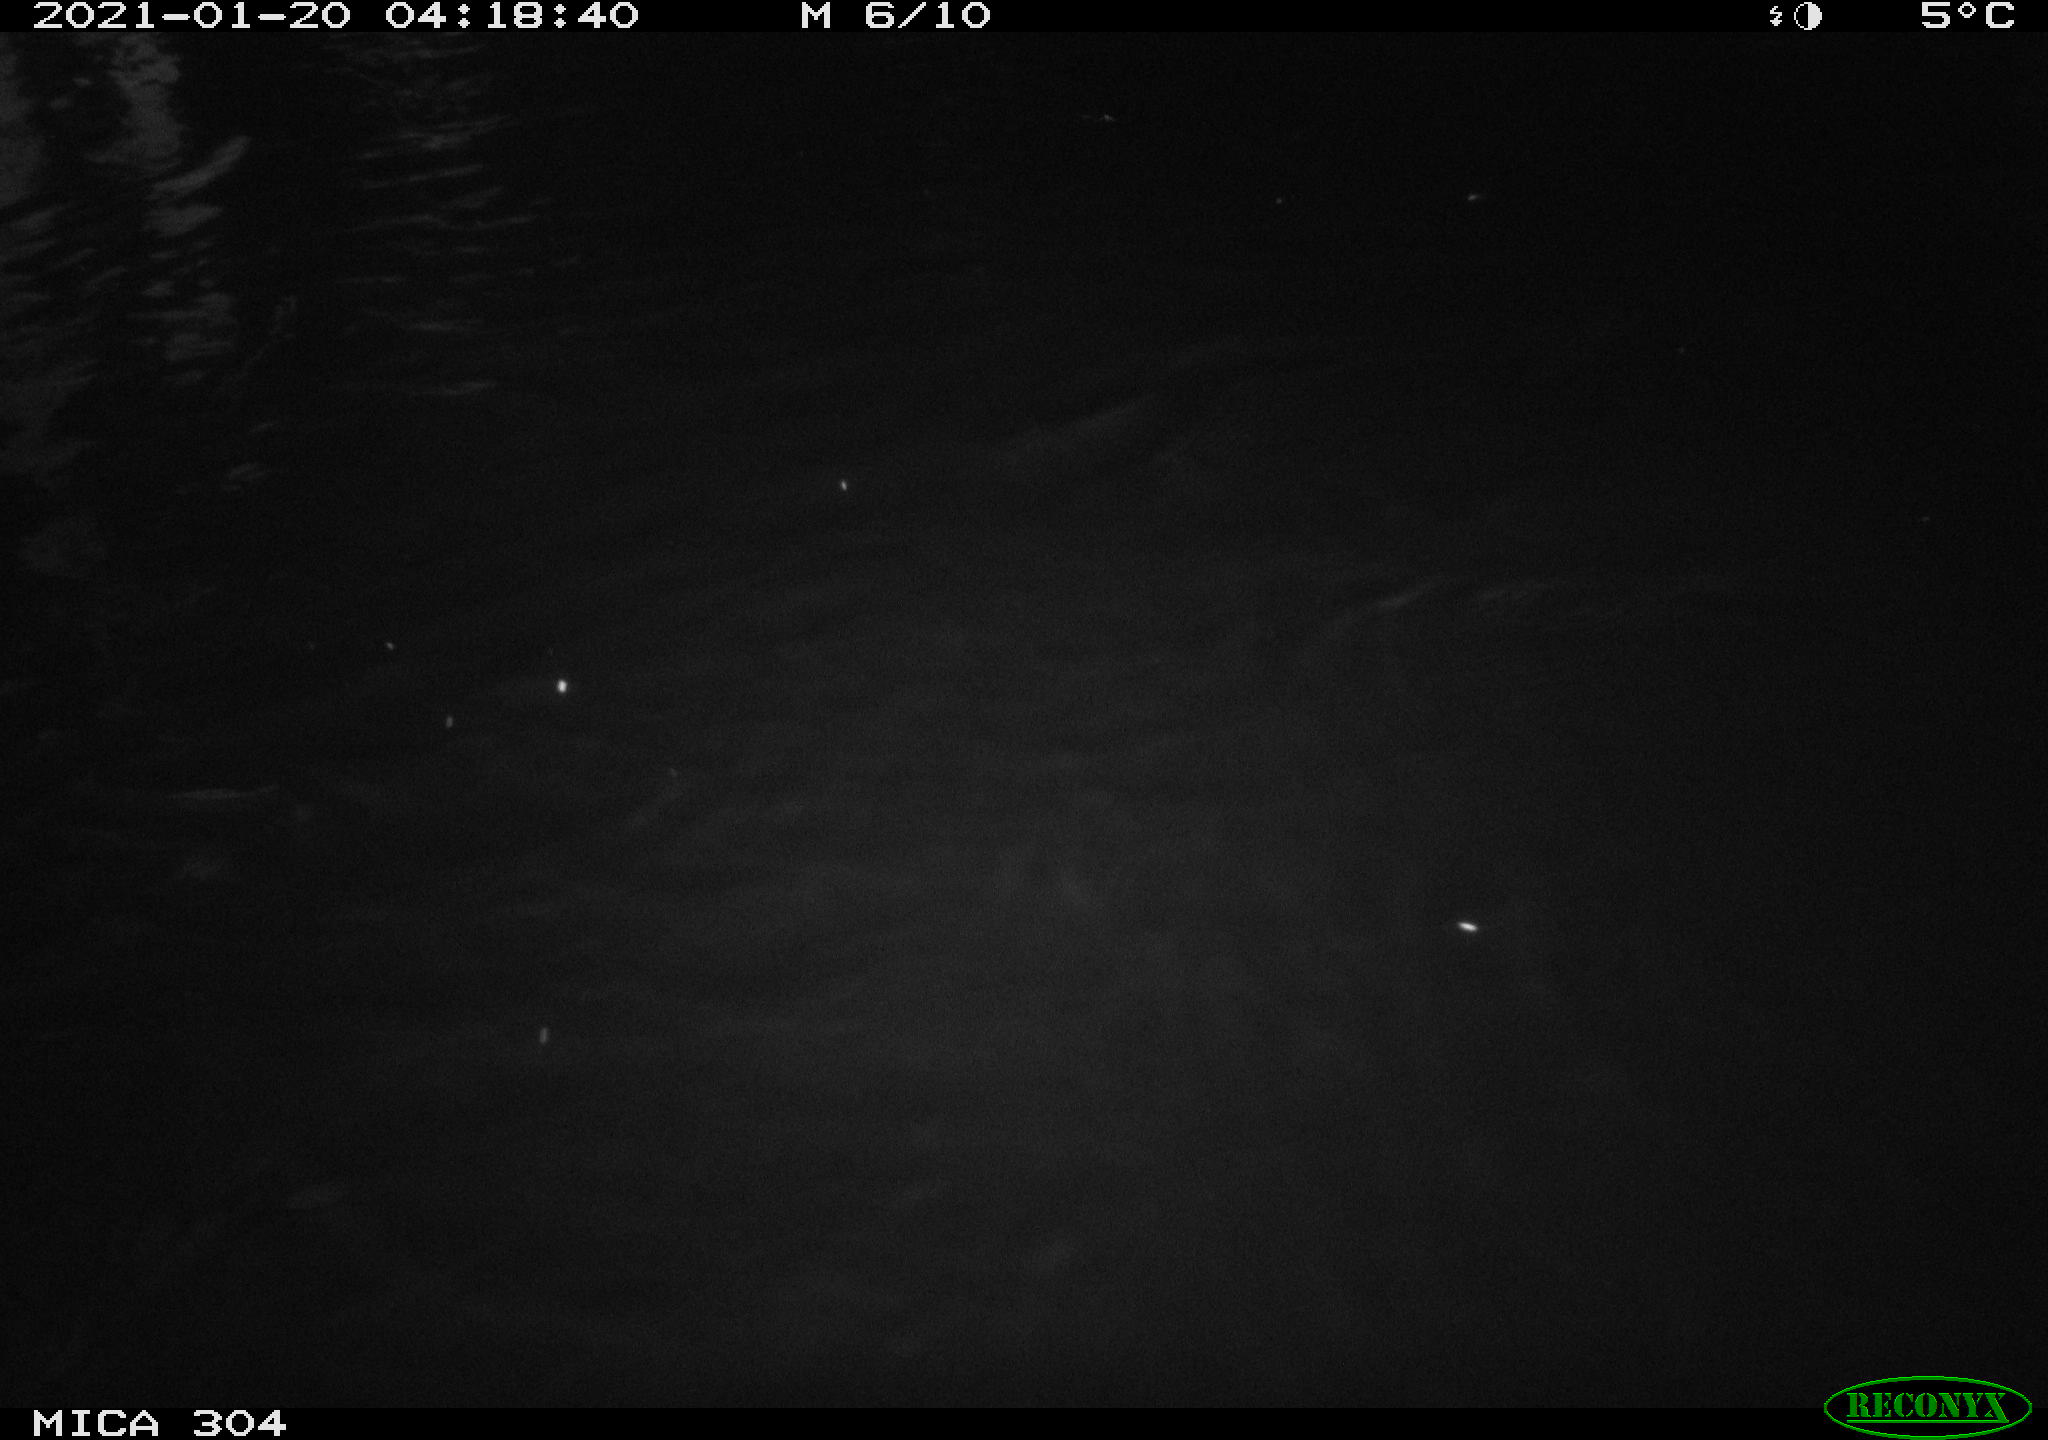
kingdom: Animalia
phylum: Chordata
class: Mammalia
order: Rodentia
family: Muridae
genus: Rattus
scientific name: Rattus norvegicus
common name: Brown rat
